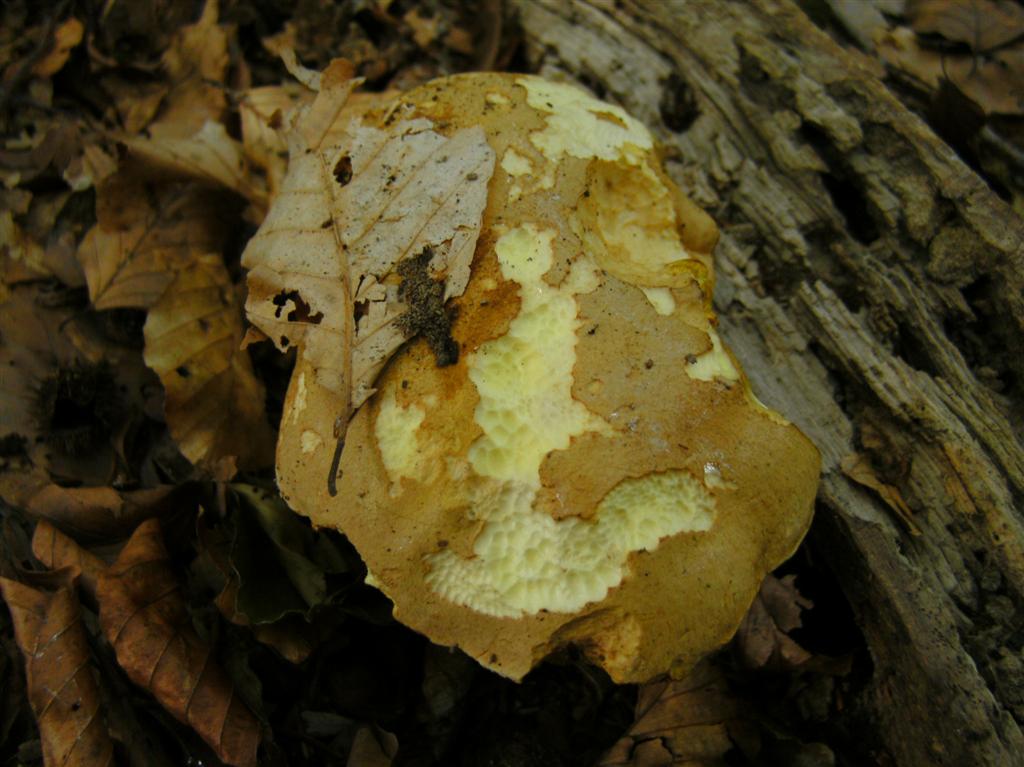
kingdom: Fungi
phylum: Basidiomycota
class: Agaricomycetes
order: Boletales
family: Boletaceae
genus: Butyriboletus
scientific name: Butyriboletus appendiculatus
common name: tenstokket rørhat
